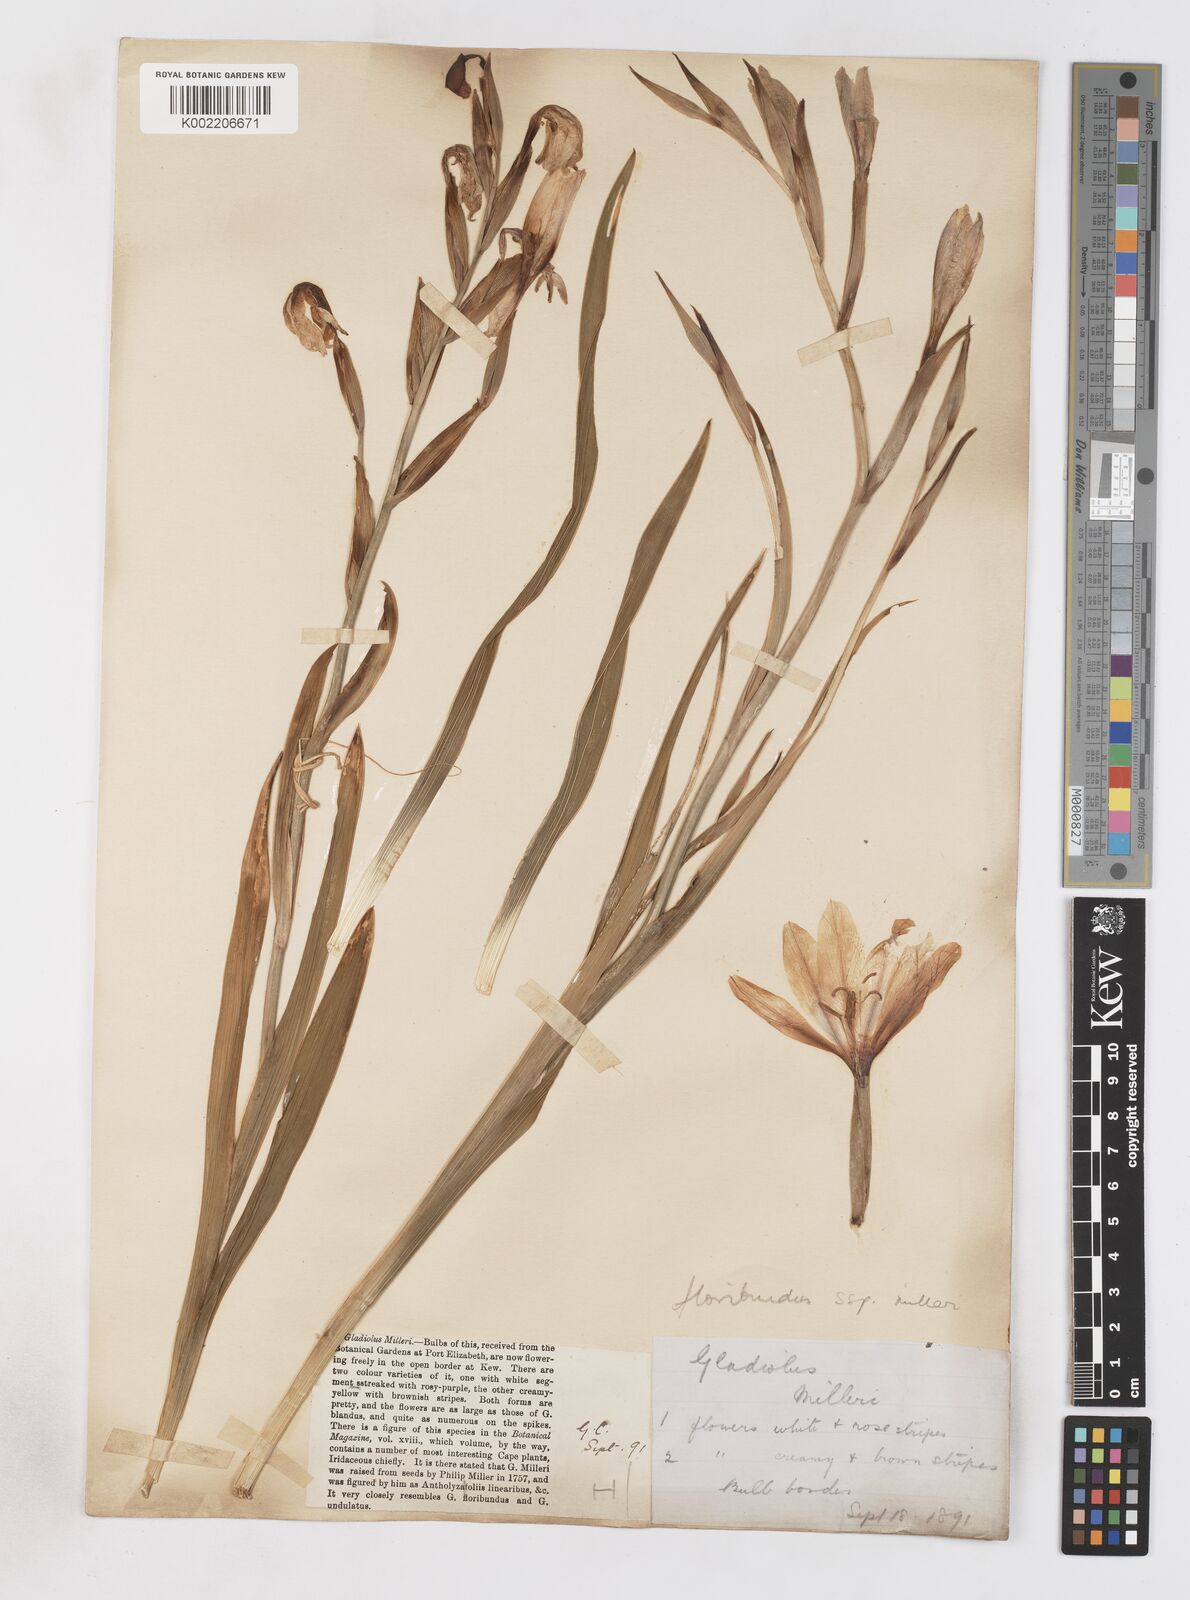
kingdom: Plantae
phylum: Tracheophyta
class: Liliopsida
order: Asparagales
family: Iridaceae
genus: Gladiolus
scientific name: Gladiolus grandiflorus
